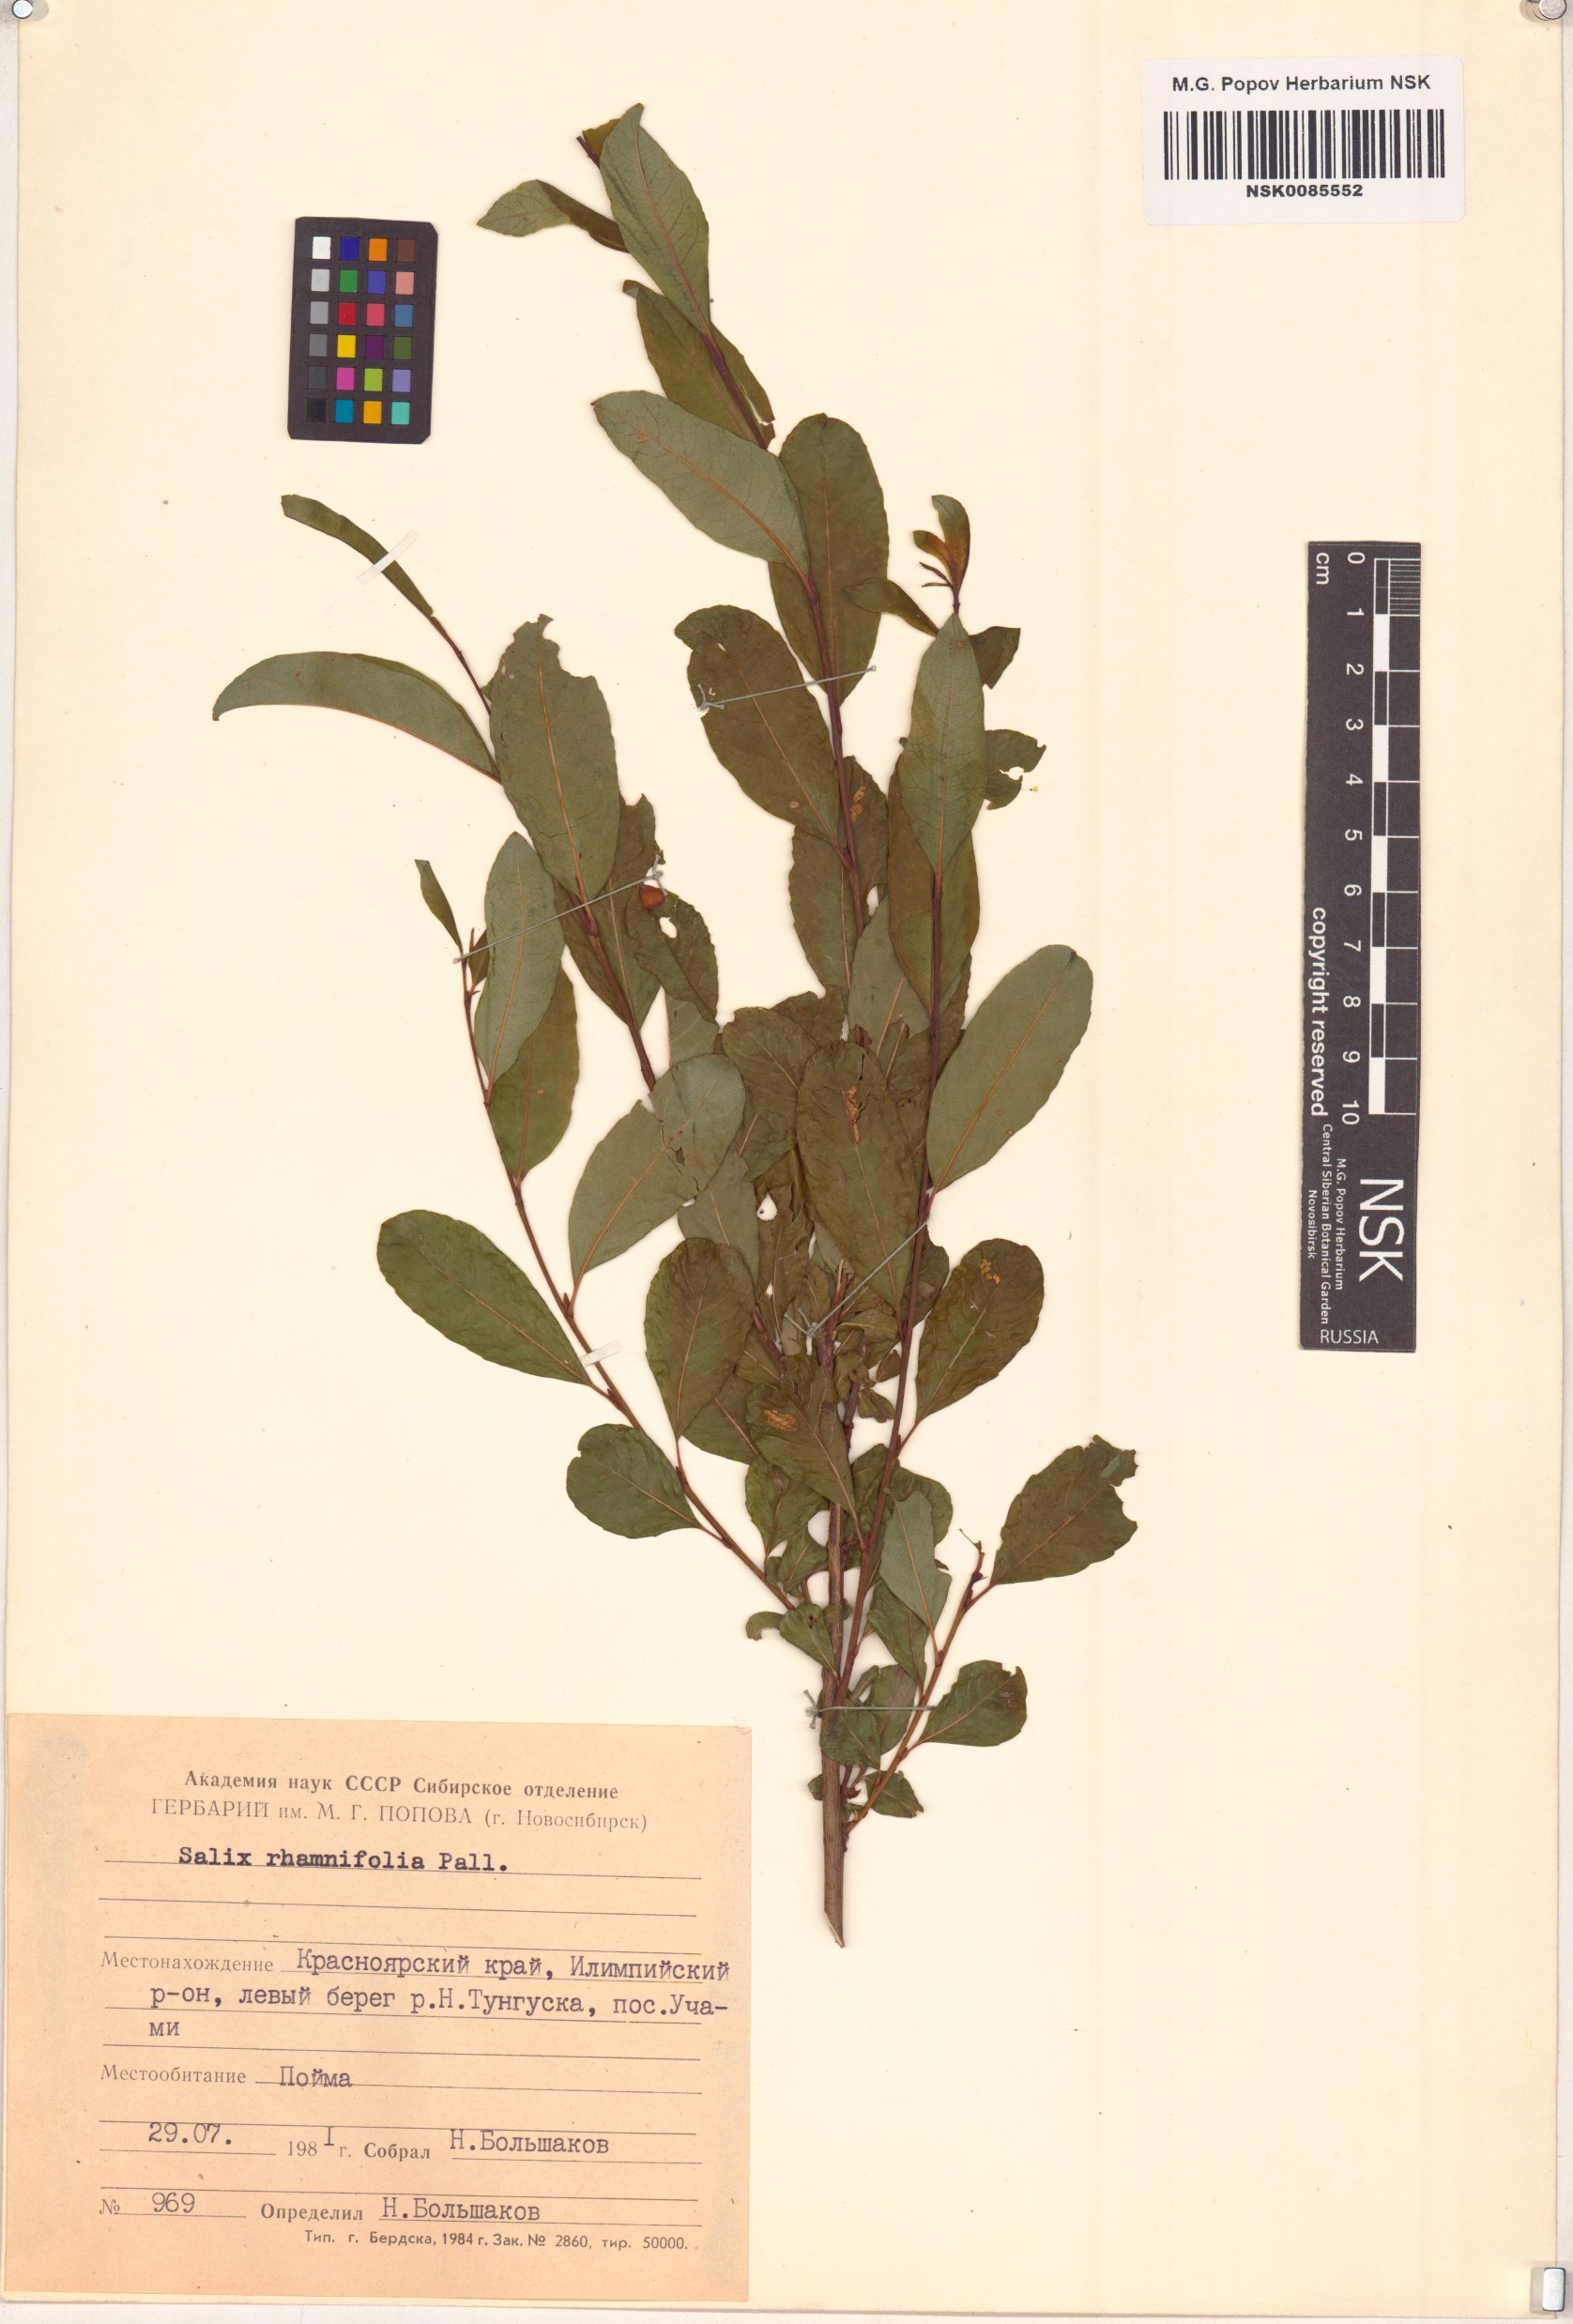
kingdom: Plantae
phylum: Tracheophyta
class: Magnoliopsida
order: Malpighiales
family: Salicaceae
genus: Salix
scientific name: Salix rhamnifolia
